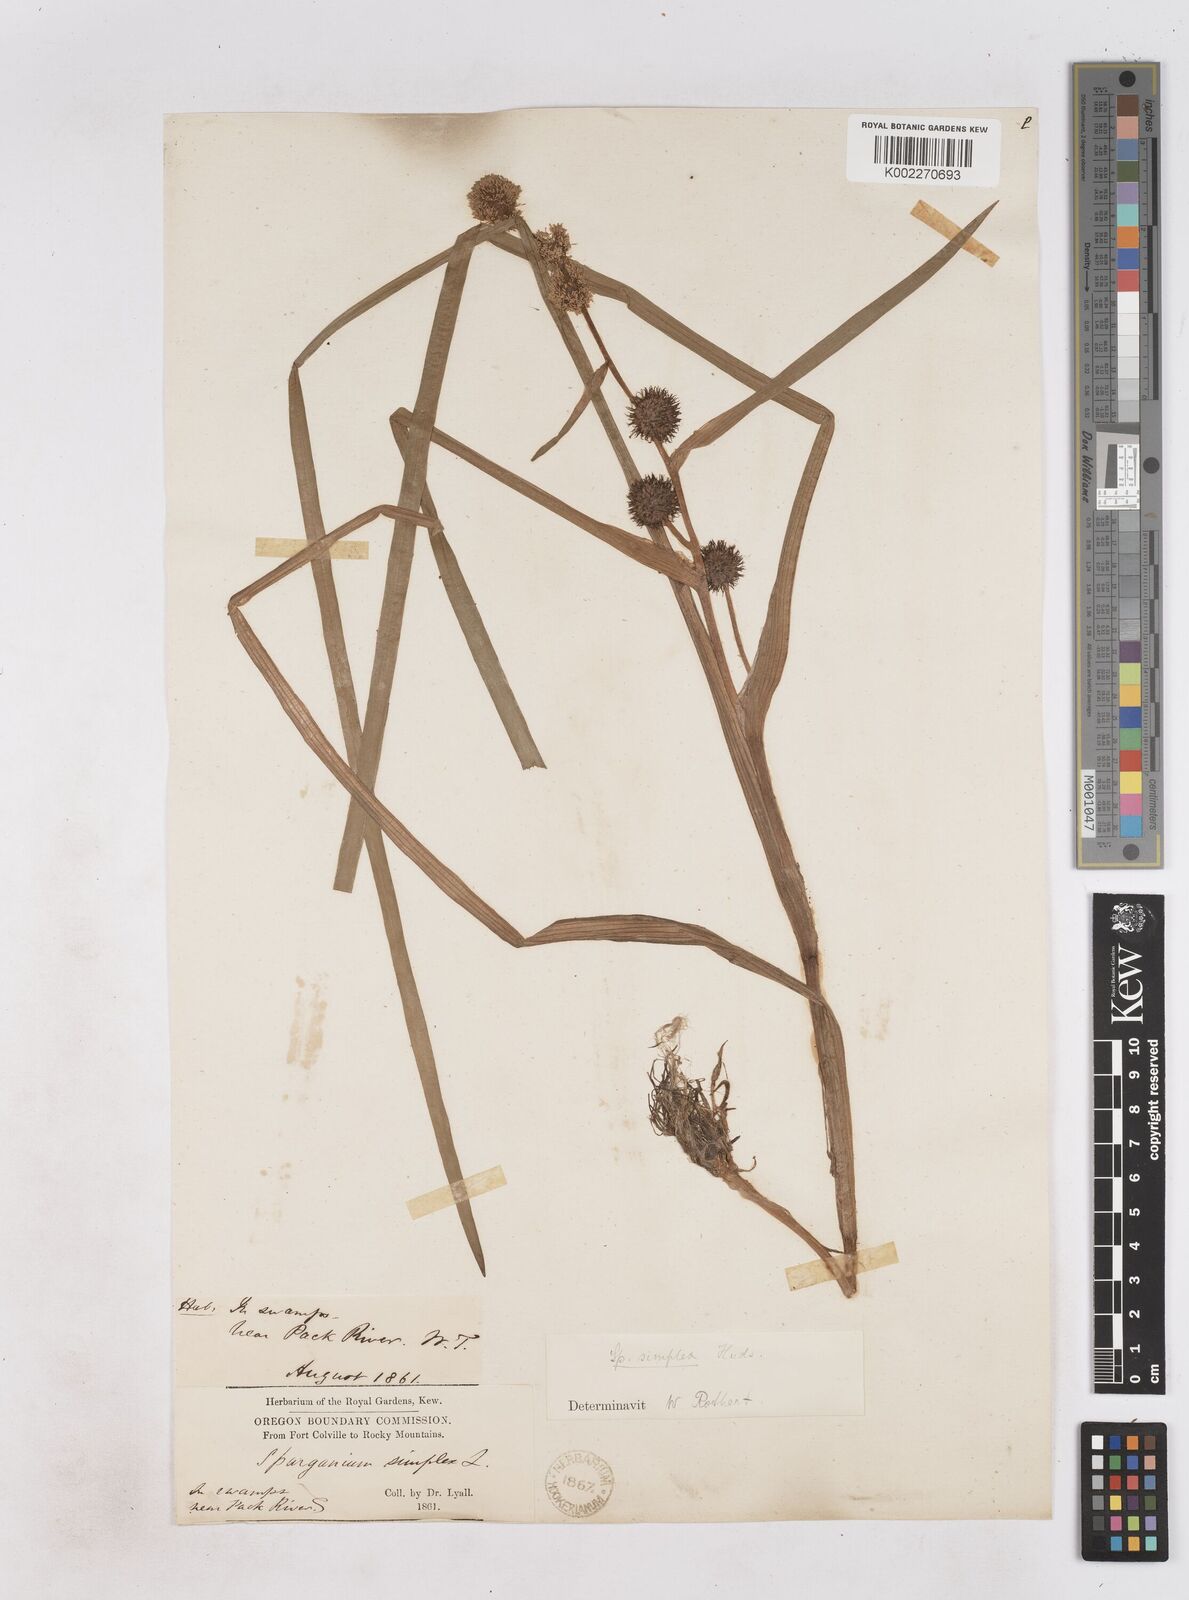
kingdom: Plantae
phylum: Tracheophyta
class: Liliopsida
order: Poales
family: Typhaceae
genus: Sparganium
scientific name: Sparganium emersum
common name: Unbranched bur-reed
